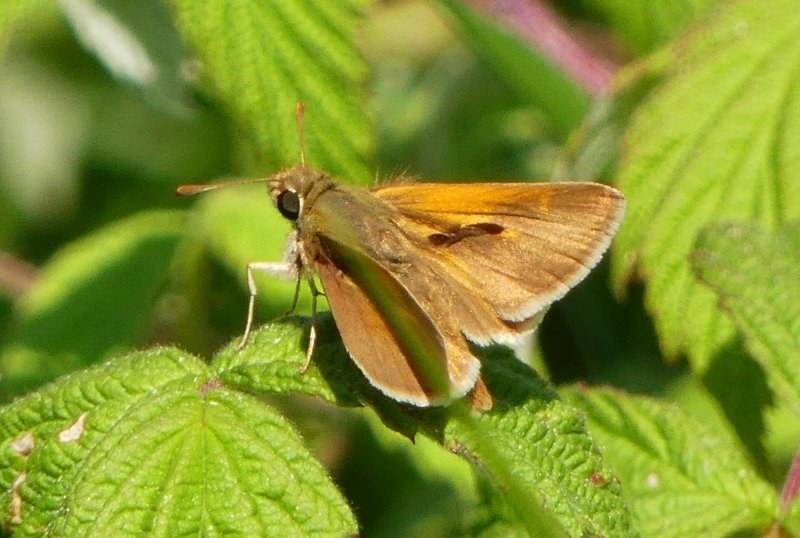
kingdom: Animalia
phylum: Arthropoda
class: Insecta
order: Lepidoptera
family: Hesperiidae
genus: Polites
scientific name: Polites themistocles
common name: Tawny-edged Skipper
